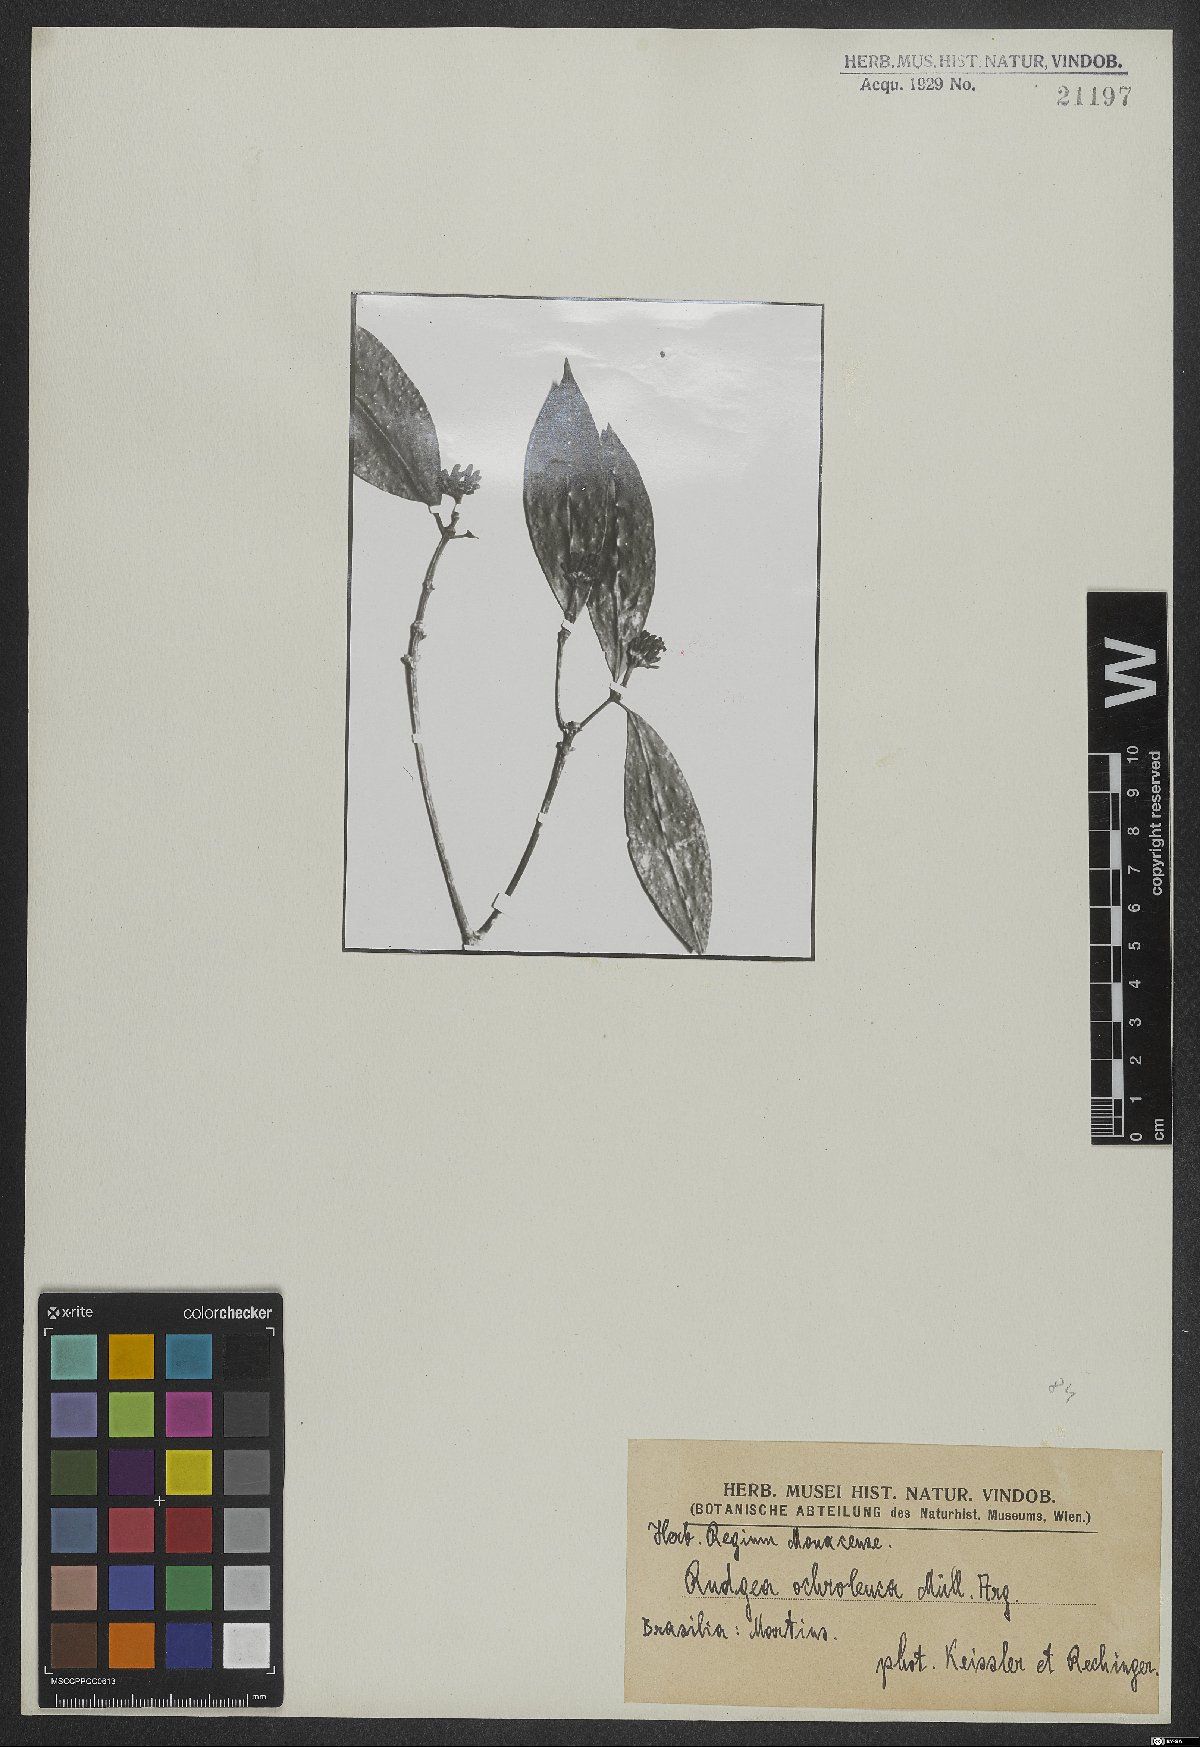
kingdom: Plantae
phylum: Tracheophyta
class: Magnoliopsida
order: Gentianales
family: Rubiaceae
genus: Rudgea
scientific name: Rudgea coronata
